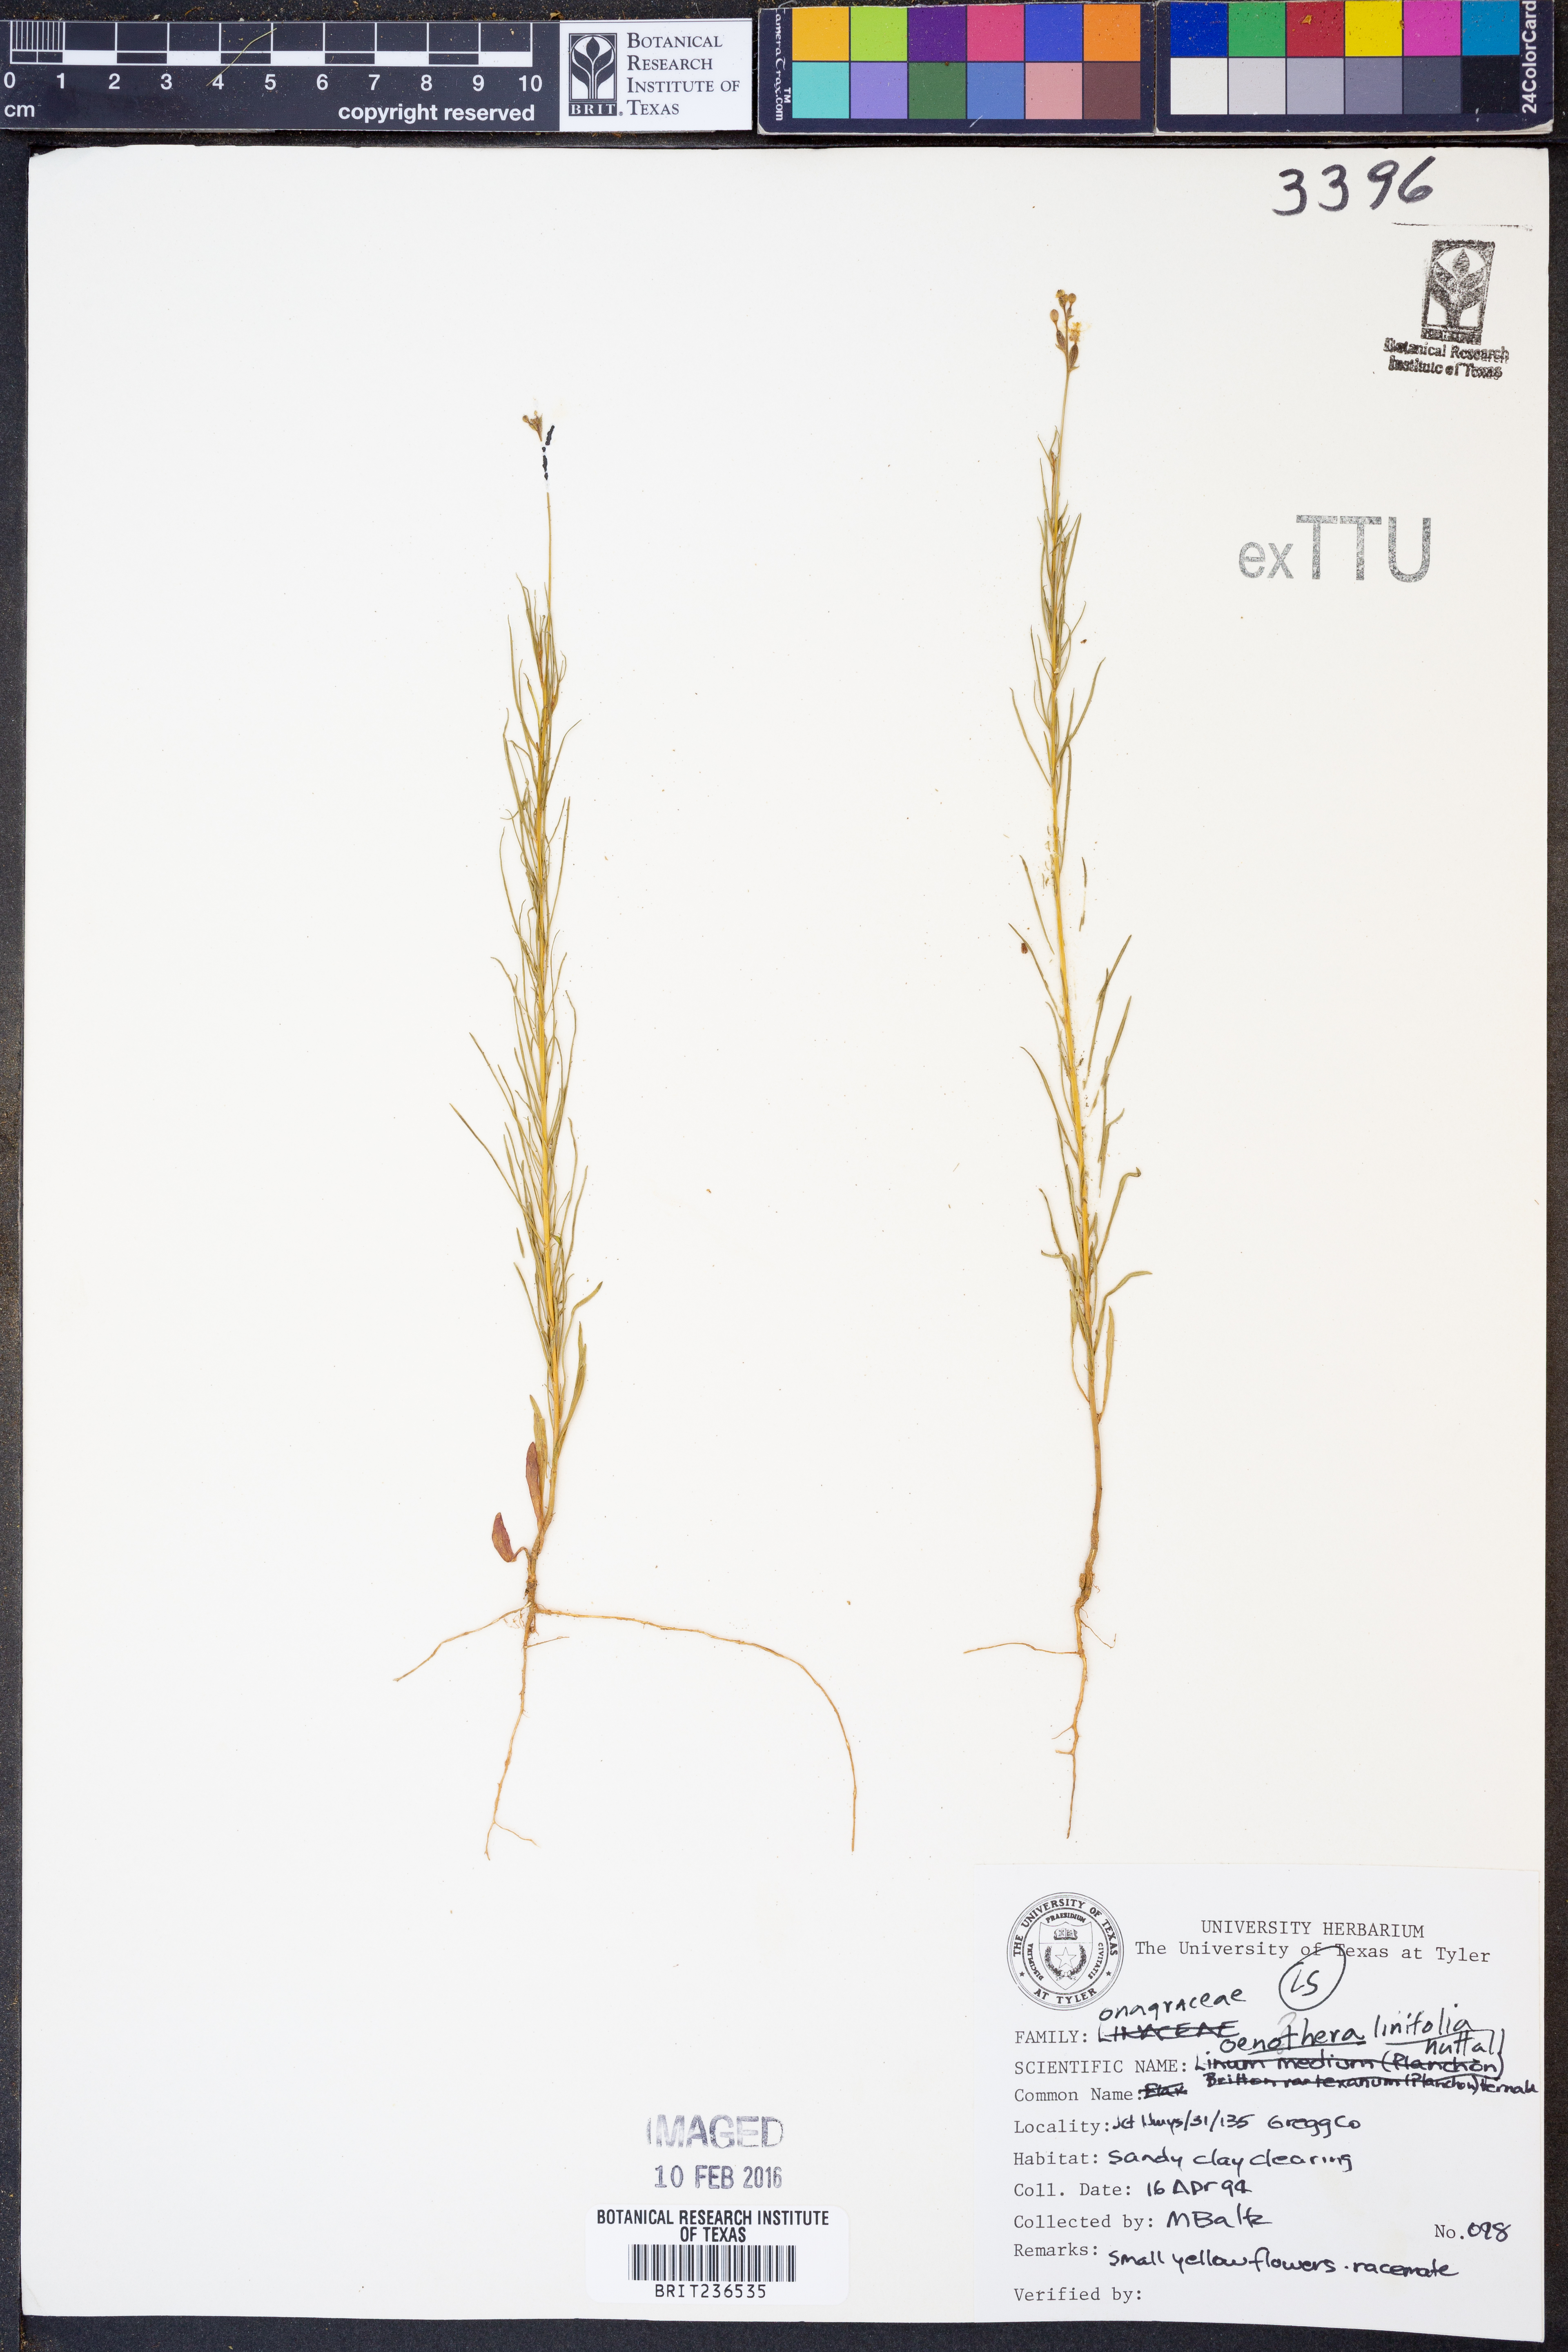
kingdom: Plantae
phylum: Tracheophyta
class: Magnoliopsida
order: Myrtales
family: Onagraceae
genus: Oenothera
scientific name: Oenothera linifolia
